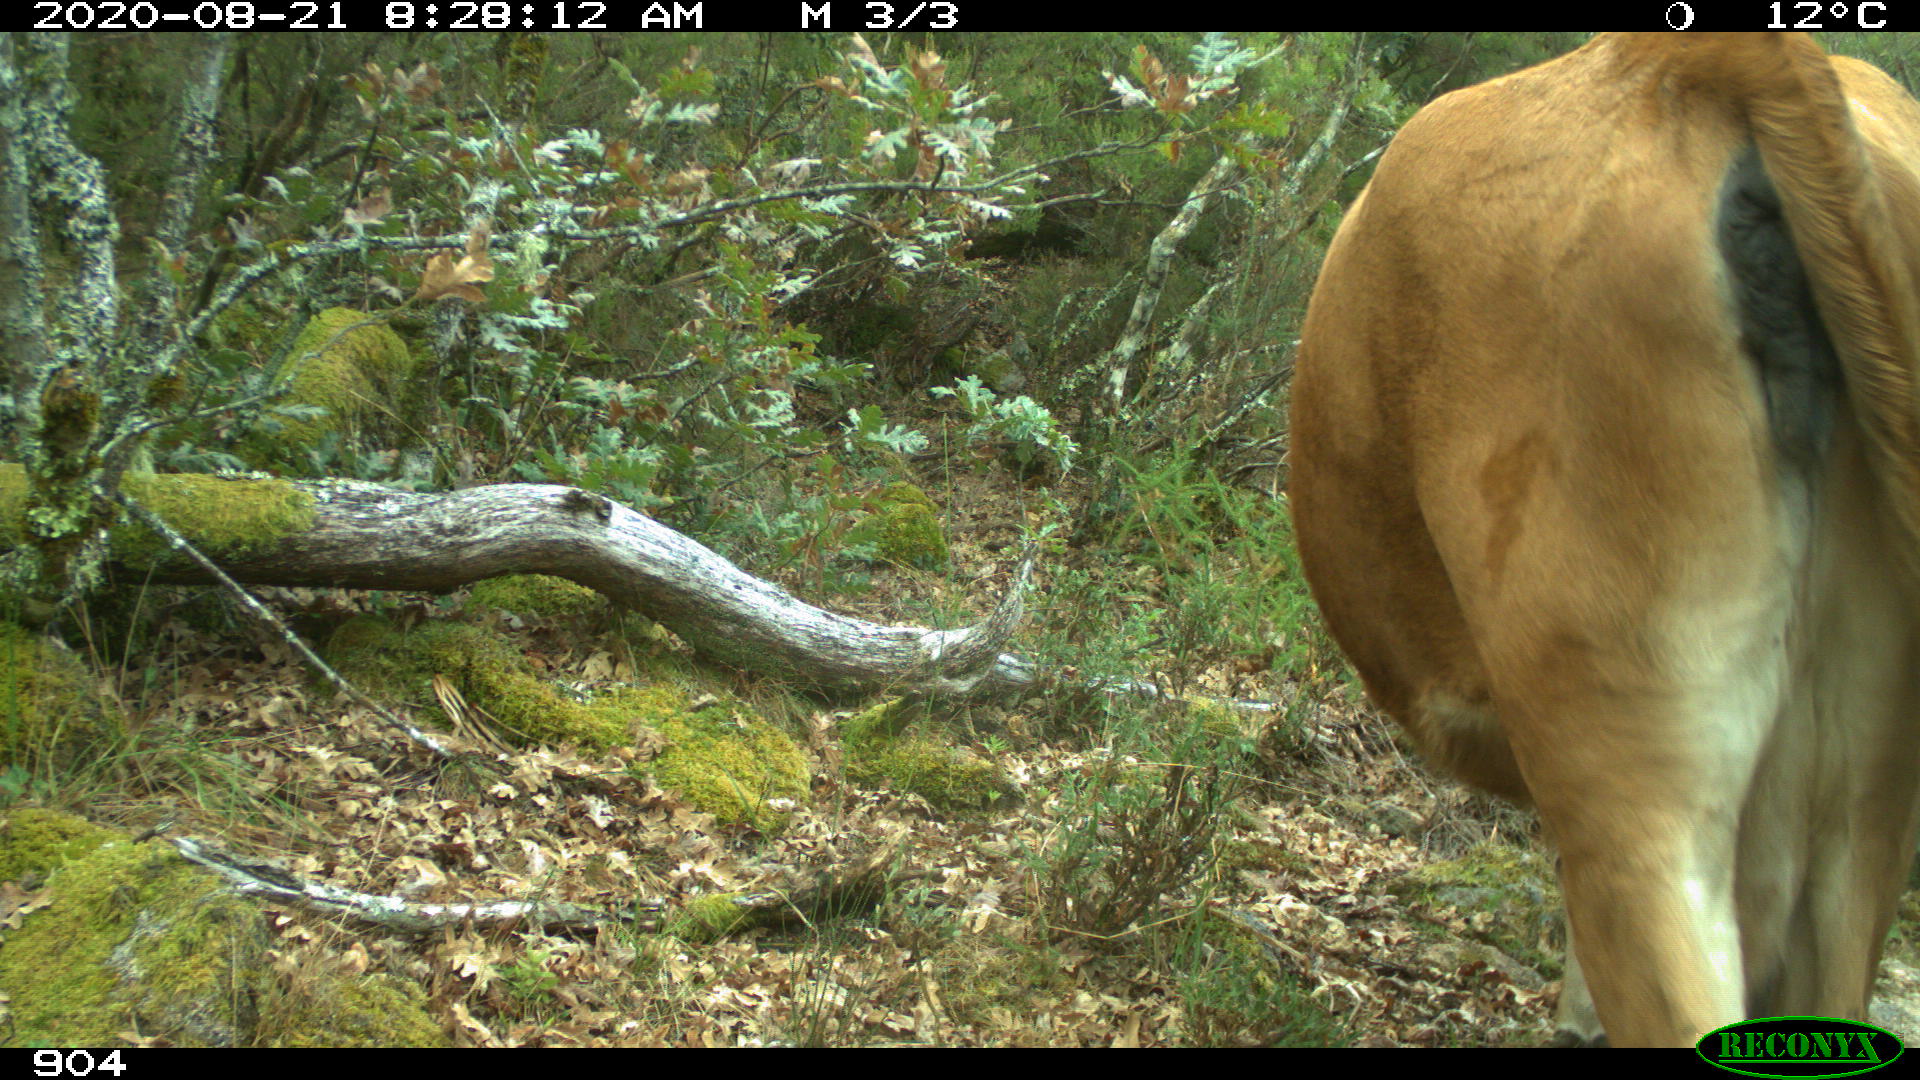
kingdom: Animalia
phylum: Chordata
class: Mammalia
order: Artiodactyla
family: Bovidae
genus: Bos
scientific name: Bos taurus
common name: Domesticated cattle
